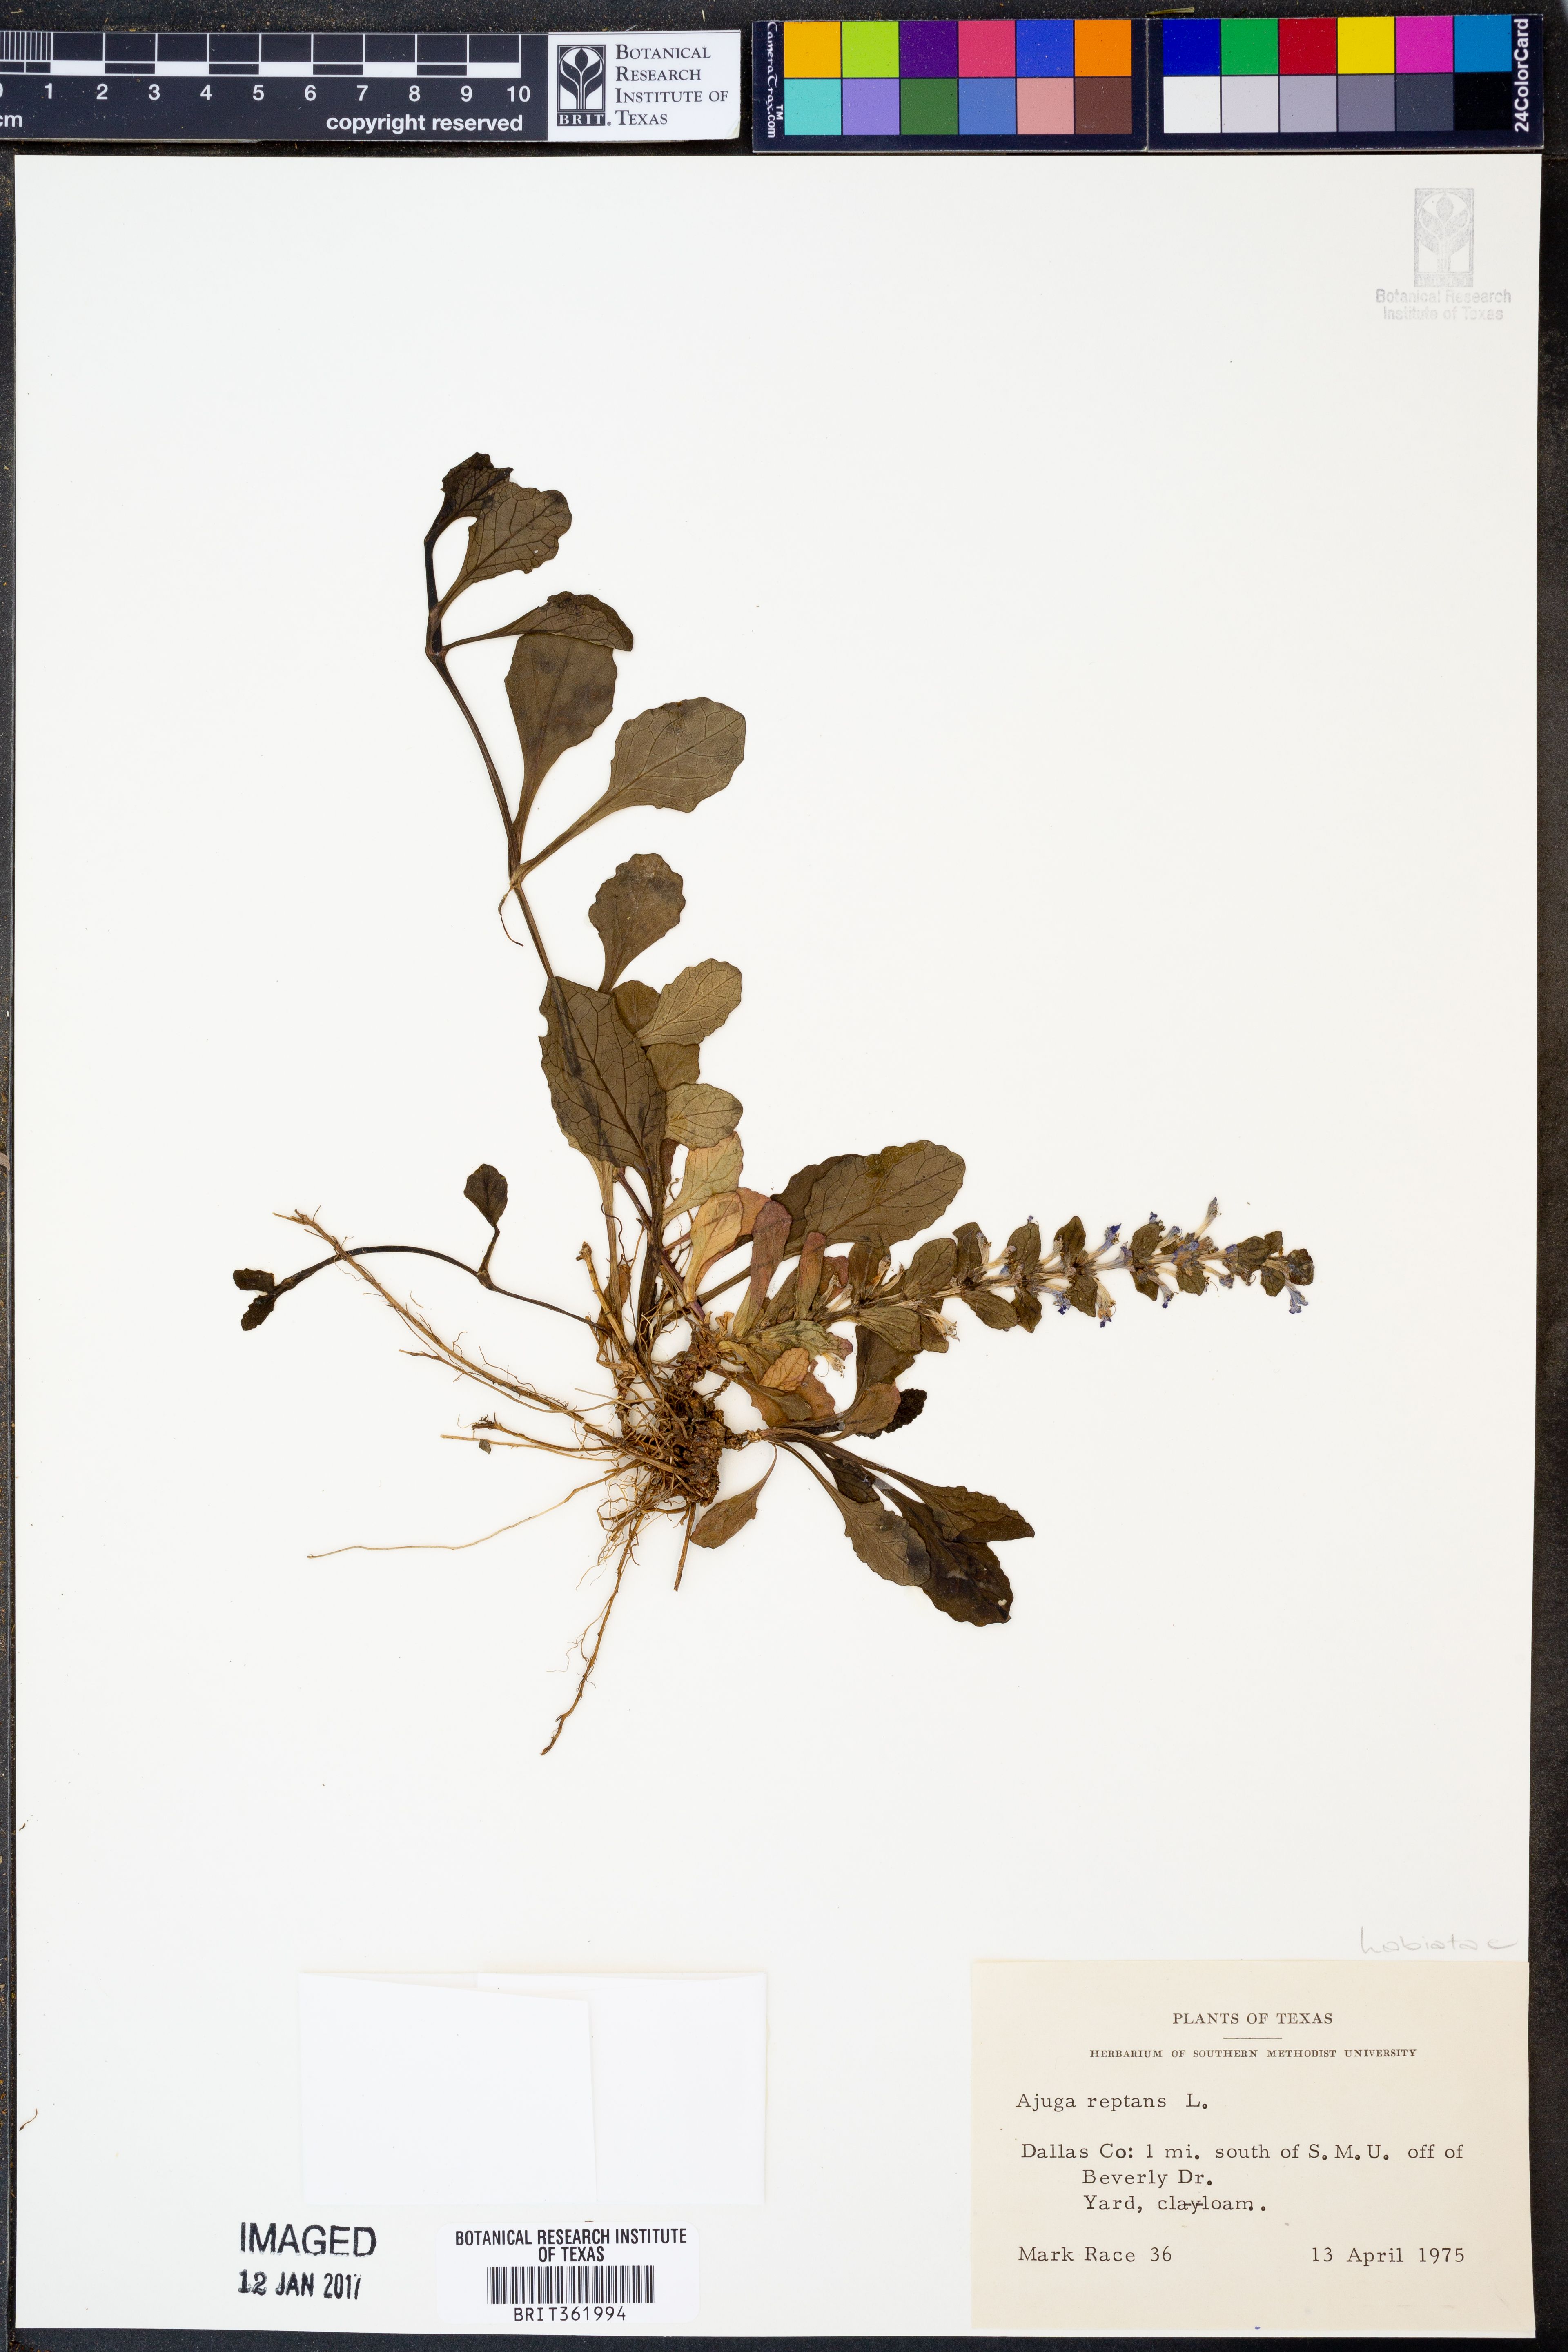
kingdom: Plantae
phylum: Tracheophyta
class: Magnoliopsida
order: Lamiales
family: Lamiaceae
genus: Ajuga
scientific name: Ajuga reptans
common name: Bugle
